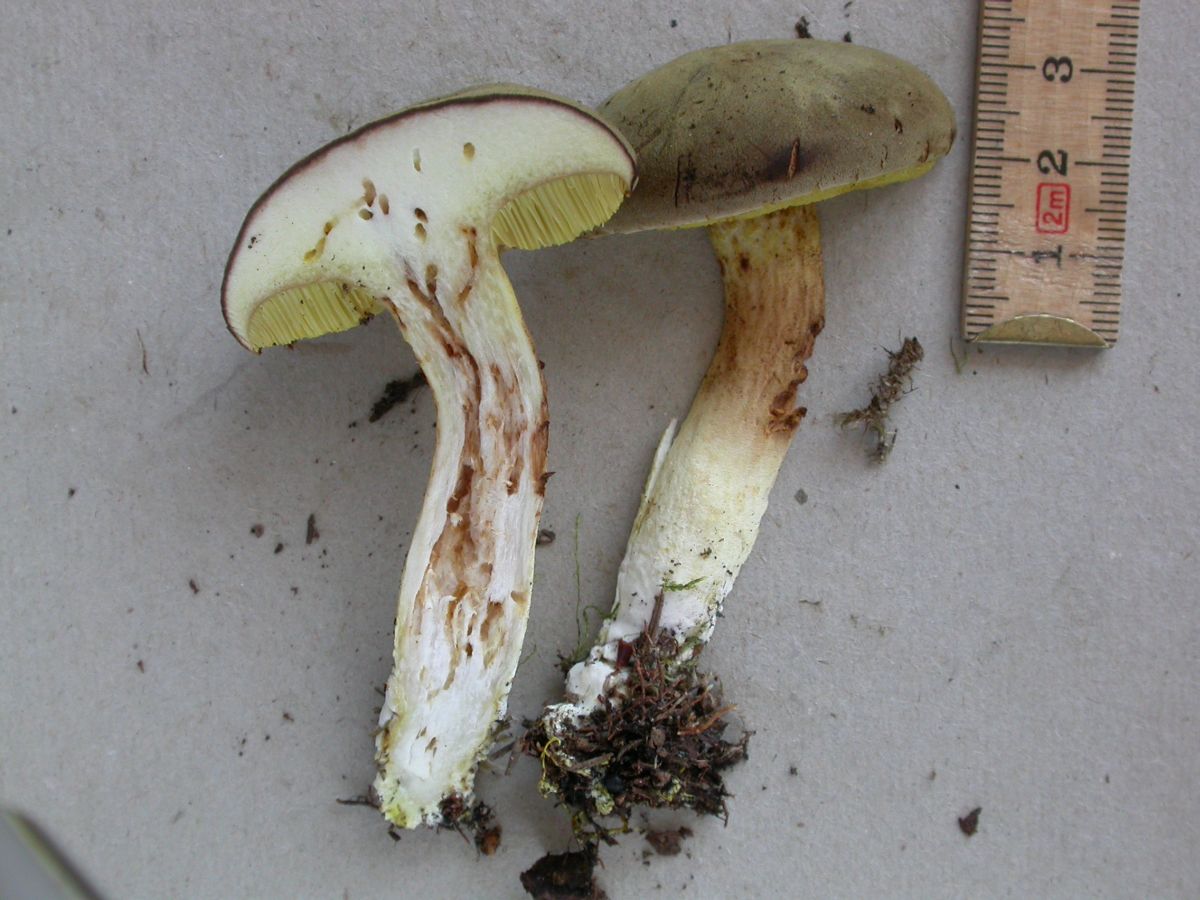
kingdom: Fungi
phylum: Basidiomycota
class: Agaricomycetes
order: Boletales
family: Boletaceae
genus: Xerocomus
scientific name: Xerocomus ferrugineus
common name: vaskeskinds-rørhat
